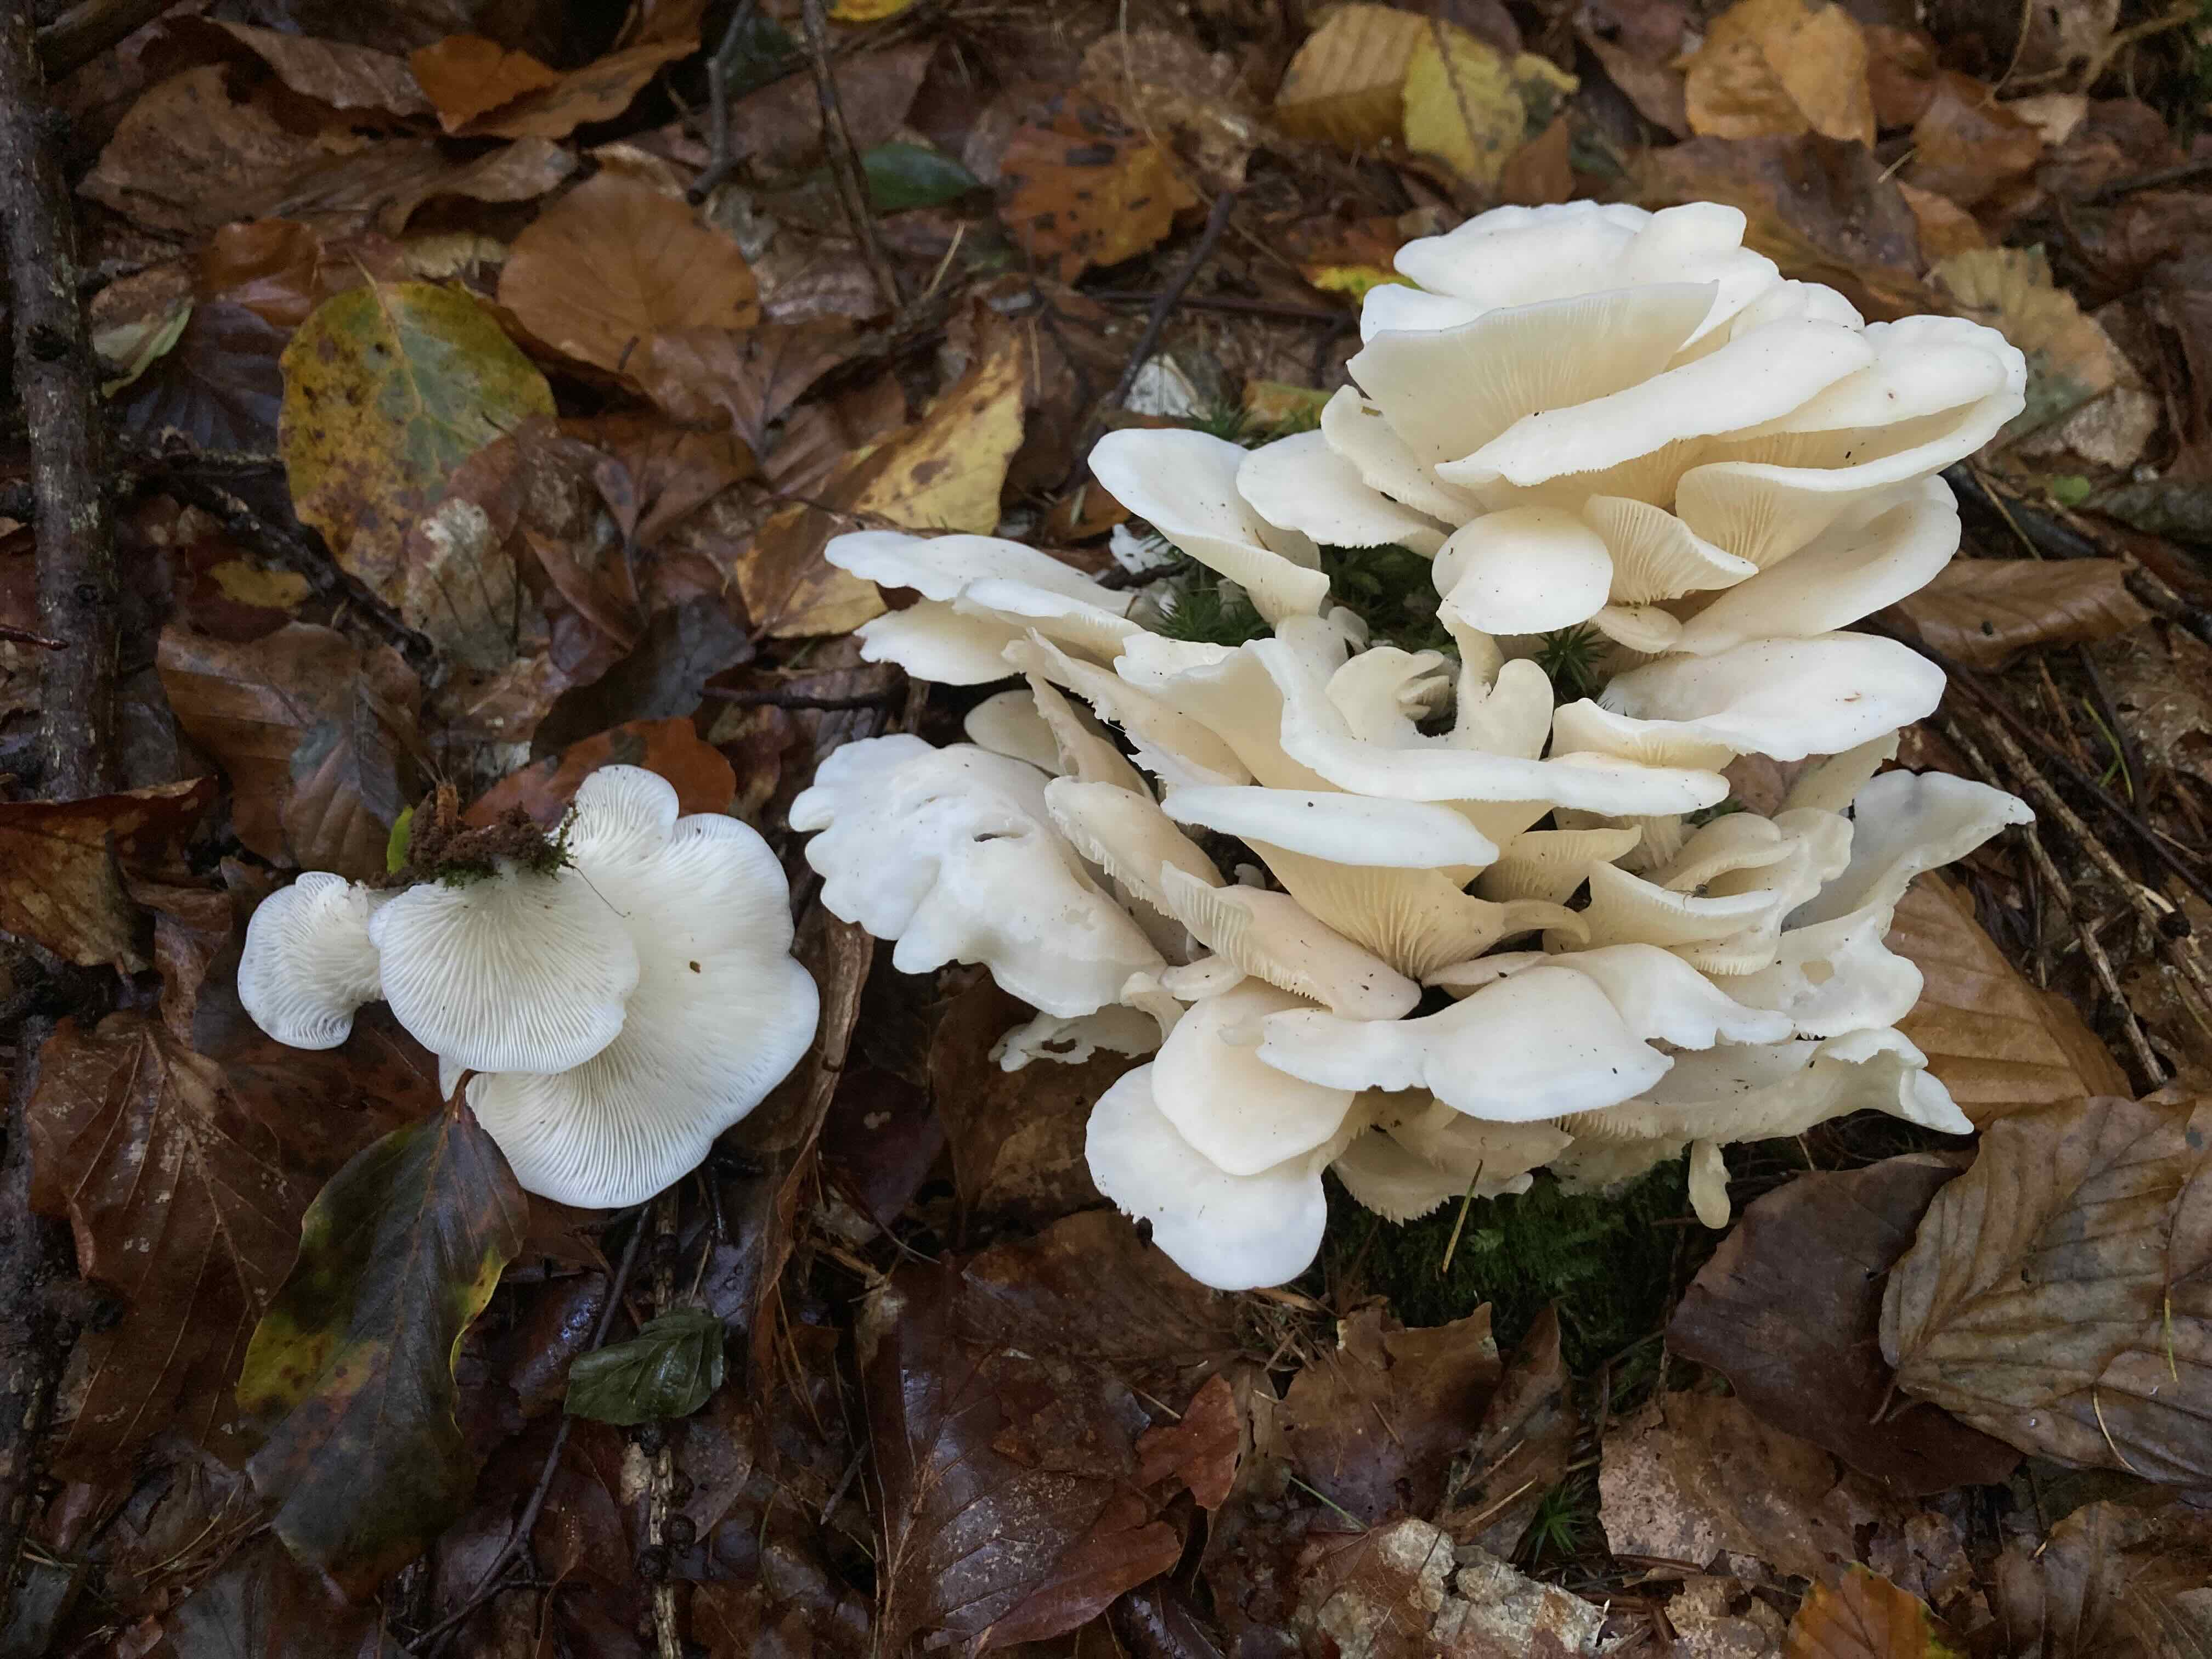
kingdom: Fungi
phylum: Basidiomycota
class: Agaricomycetes
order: Agaricales
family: Marasmiaceae
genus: Pleurocybella
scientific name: Pleurocybella porrigens
